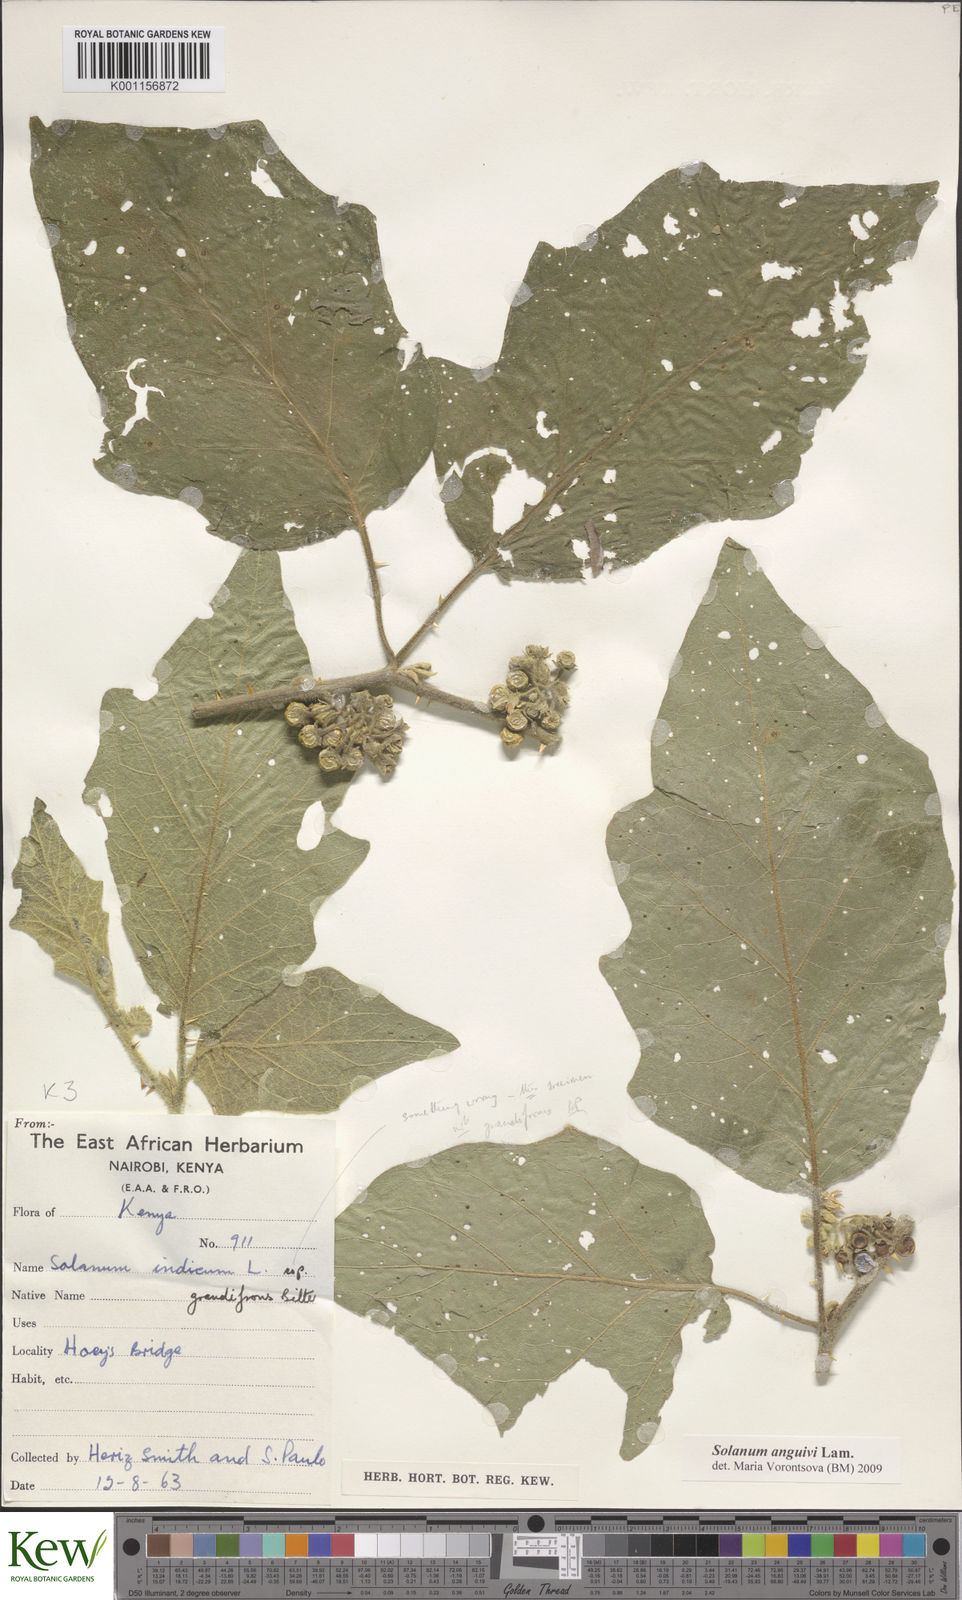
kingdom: Plantae
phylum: Tracheophyta
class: Magnoliopsida
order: Solanales
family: Solanaceae
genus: Solanum
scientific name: Solanum anguivi
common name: Forest bitterberry
